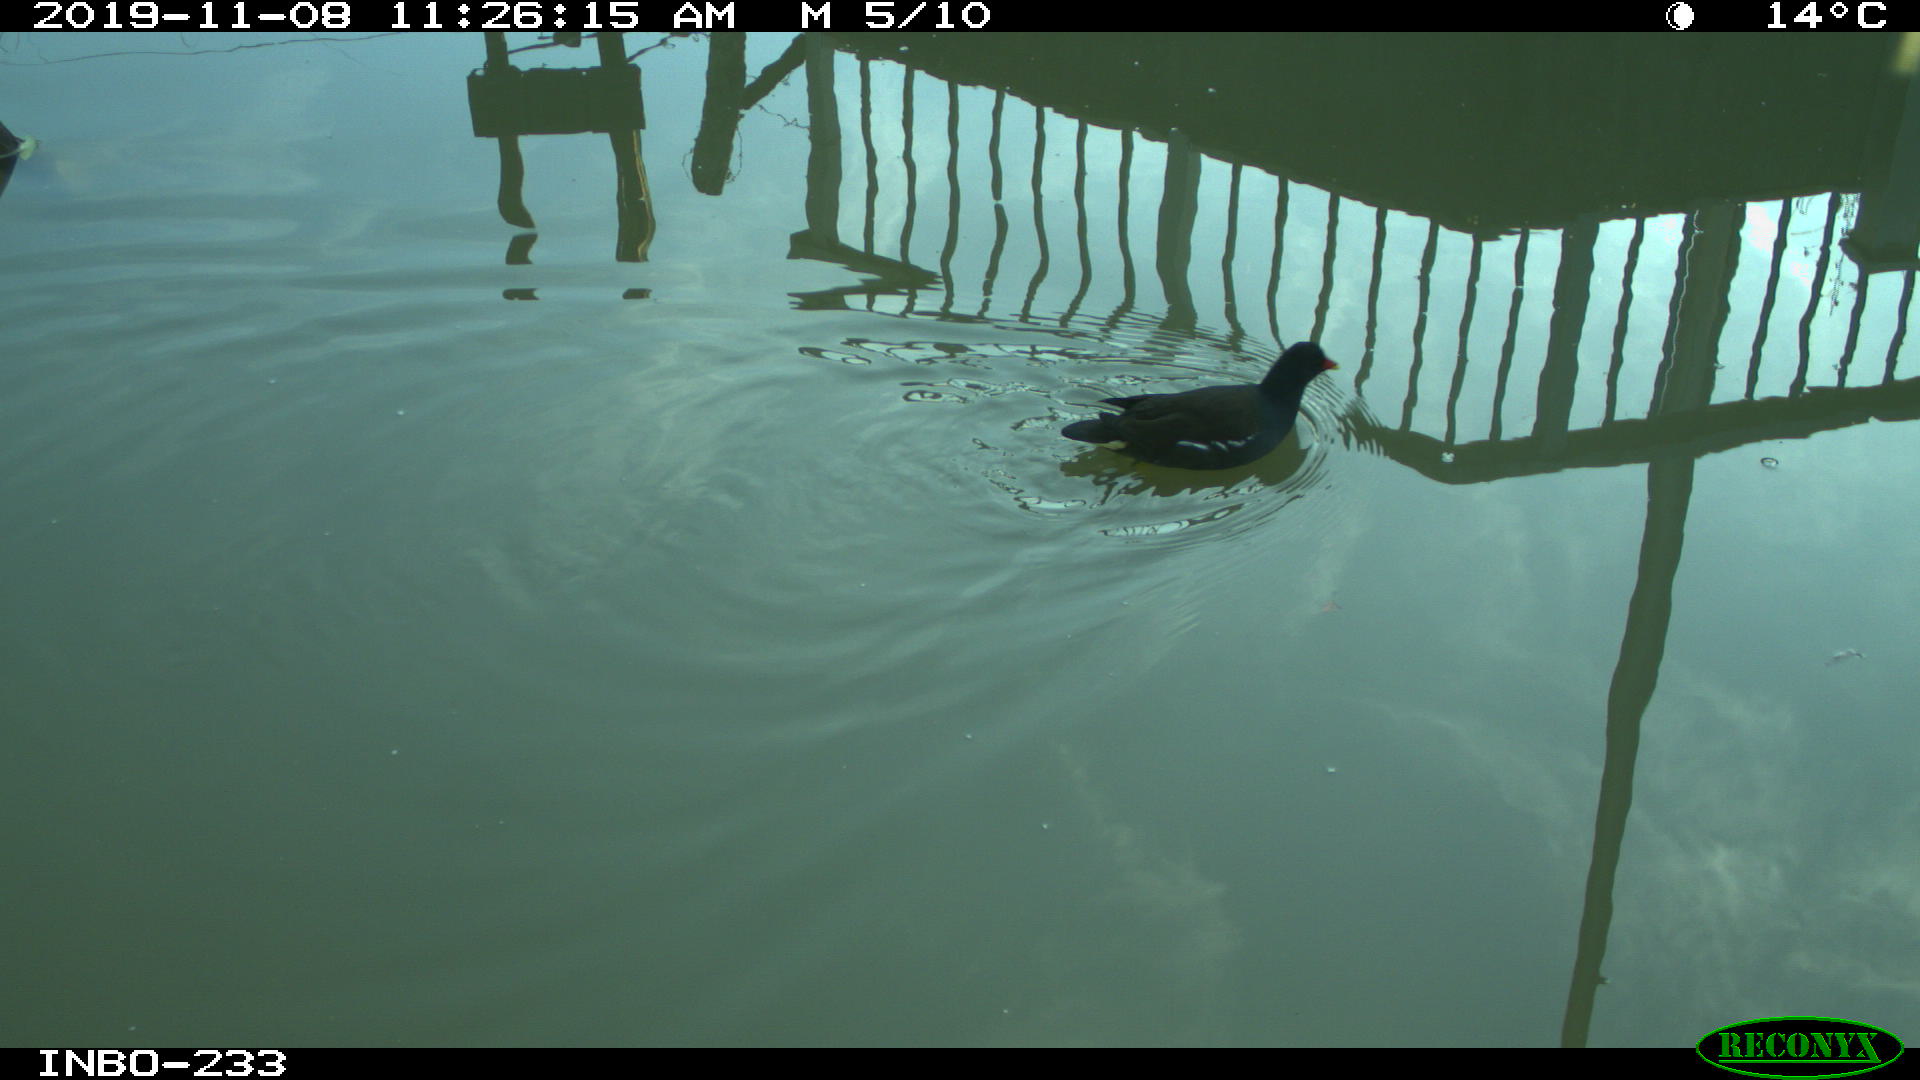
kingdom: Animalia
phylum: Chordata
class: Aves
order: Gruiformes
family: Rallidae
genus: Gallinula
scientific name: Gallinula chloropus
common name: Common moorhen
